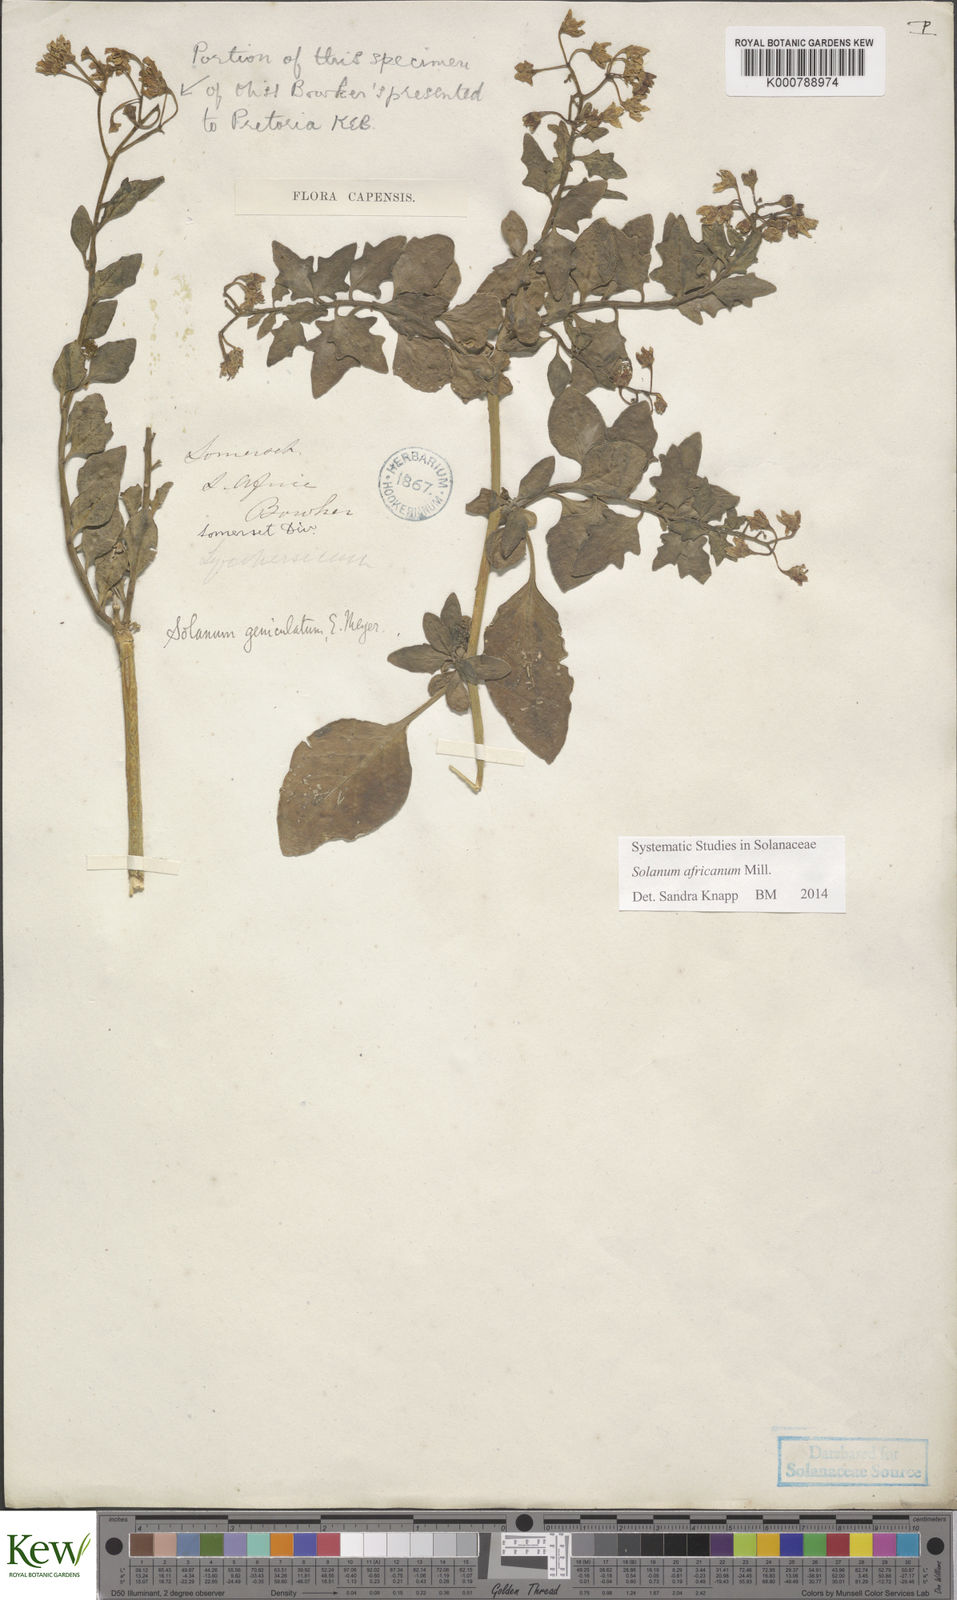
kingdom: Plantae
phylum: Tracheophyta
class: Magnoliopsida
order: Solanales
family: Solanaceae
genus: Solanum
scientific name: Solanum africanum
